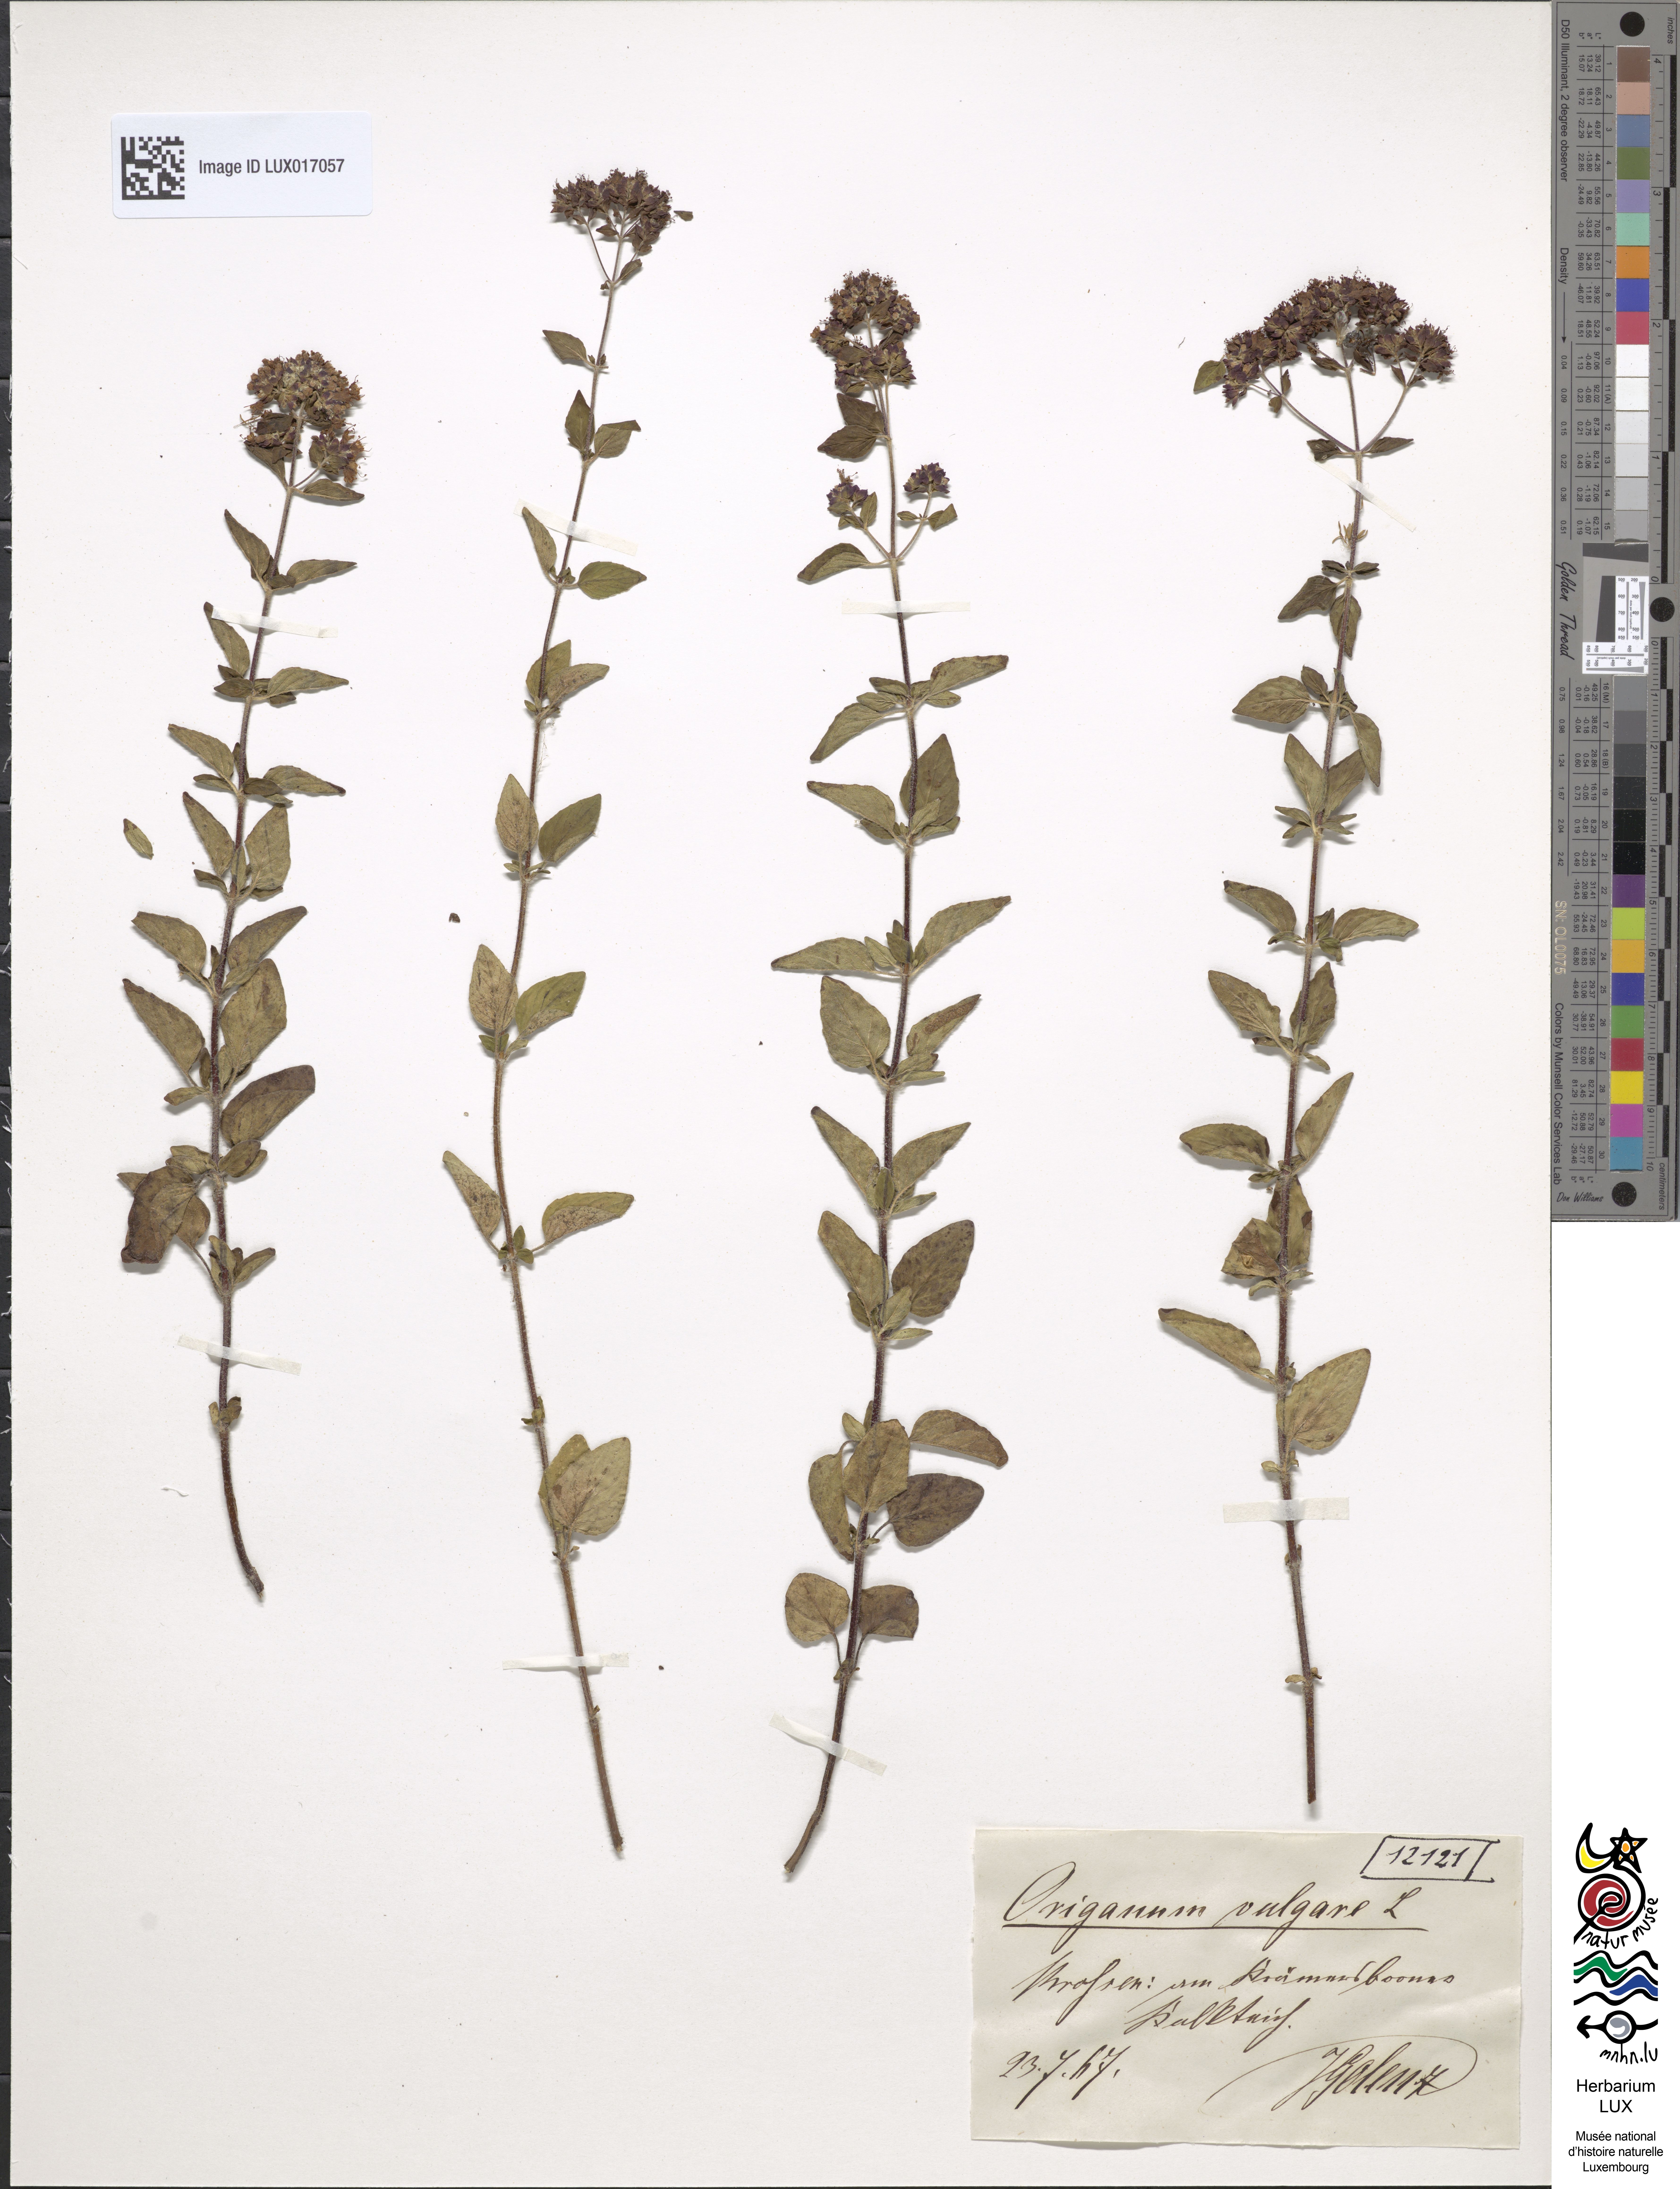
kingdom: Plantae
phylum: Tracheophyta
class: Magnoliopsida
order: Lamiales
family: Lamiaceae
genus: Origanum
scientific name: Origanum vulgare
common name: Wild marjoram
